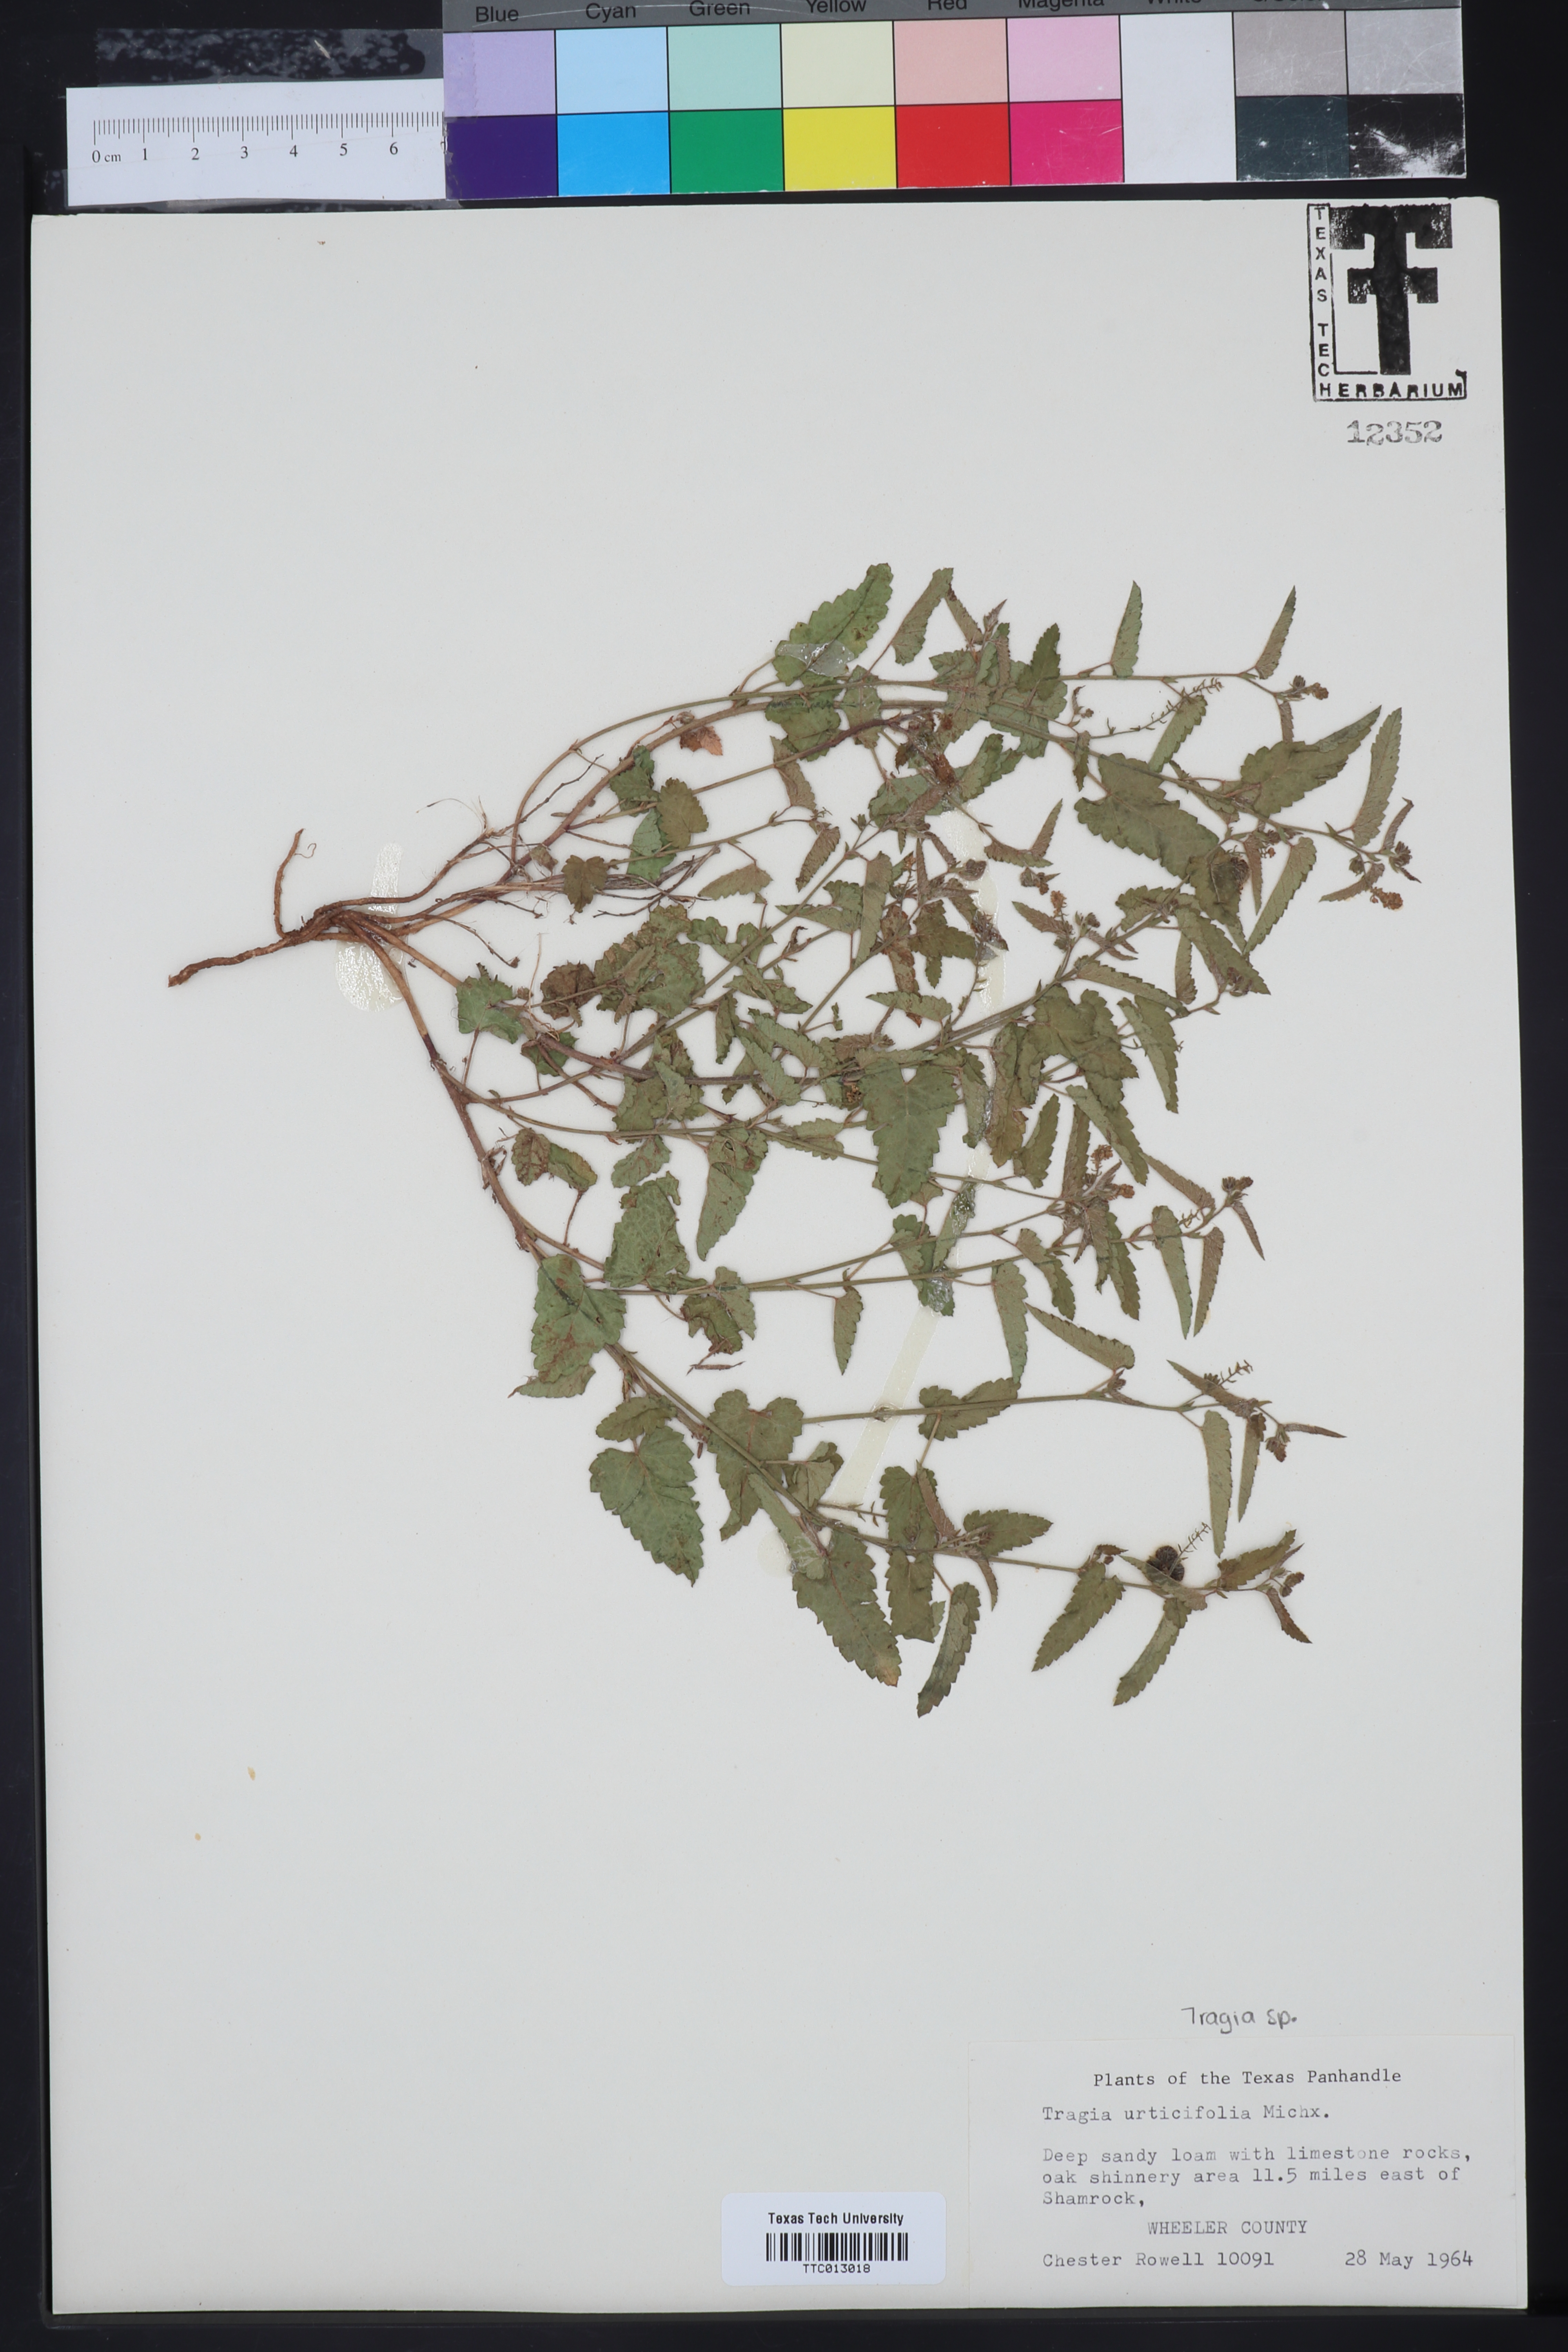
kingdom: Plantae
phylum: Tracheophyta
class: Magnoliopsida
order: Malpighiales
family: Euphorbiaceae
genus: Tragia
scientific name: Tragia urticifolia
